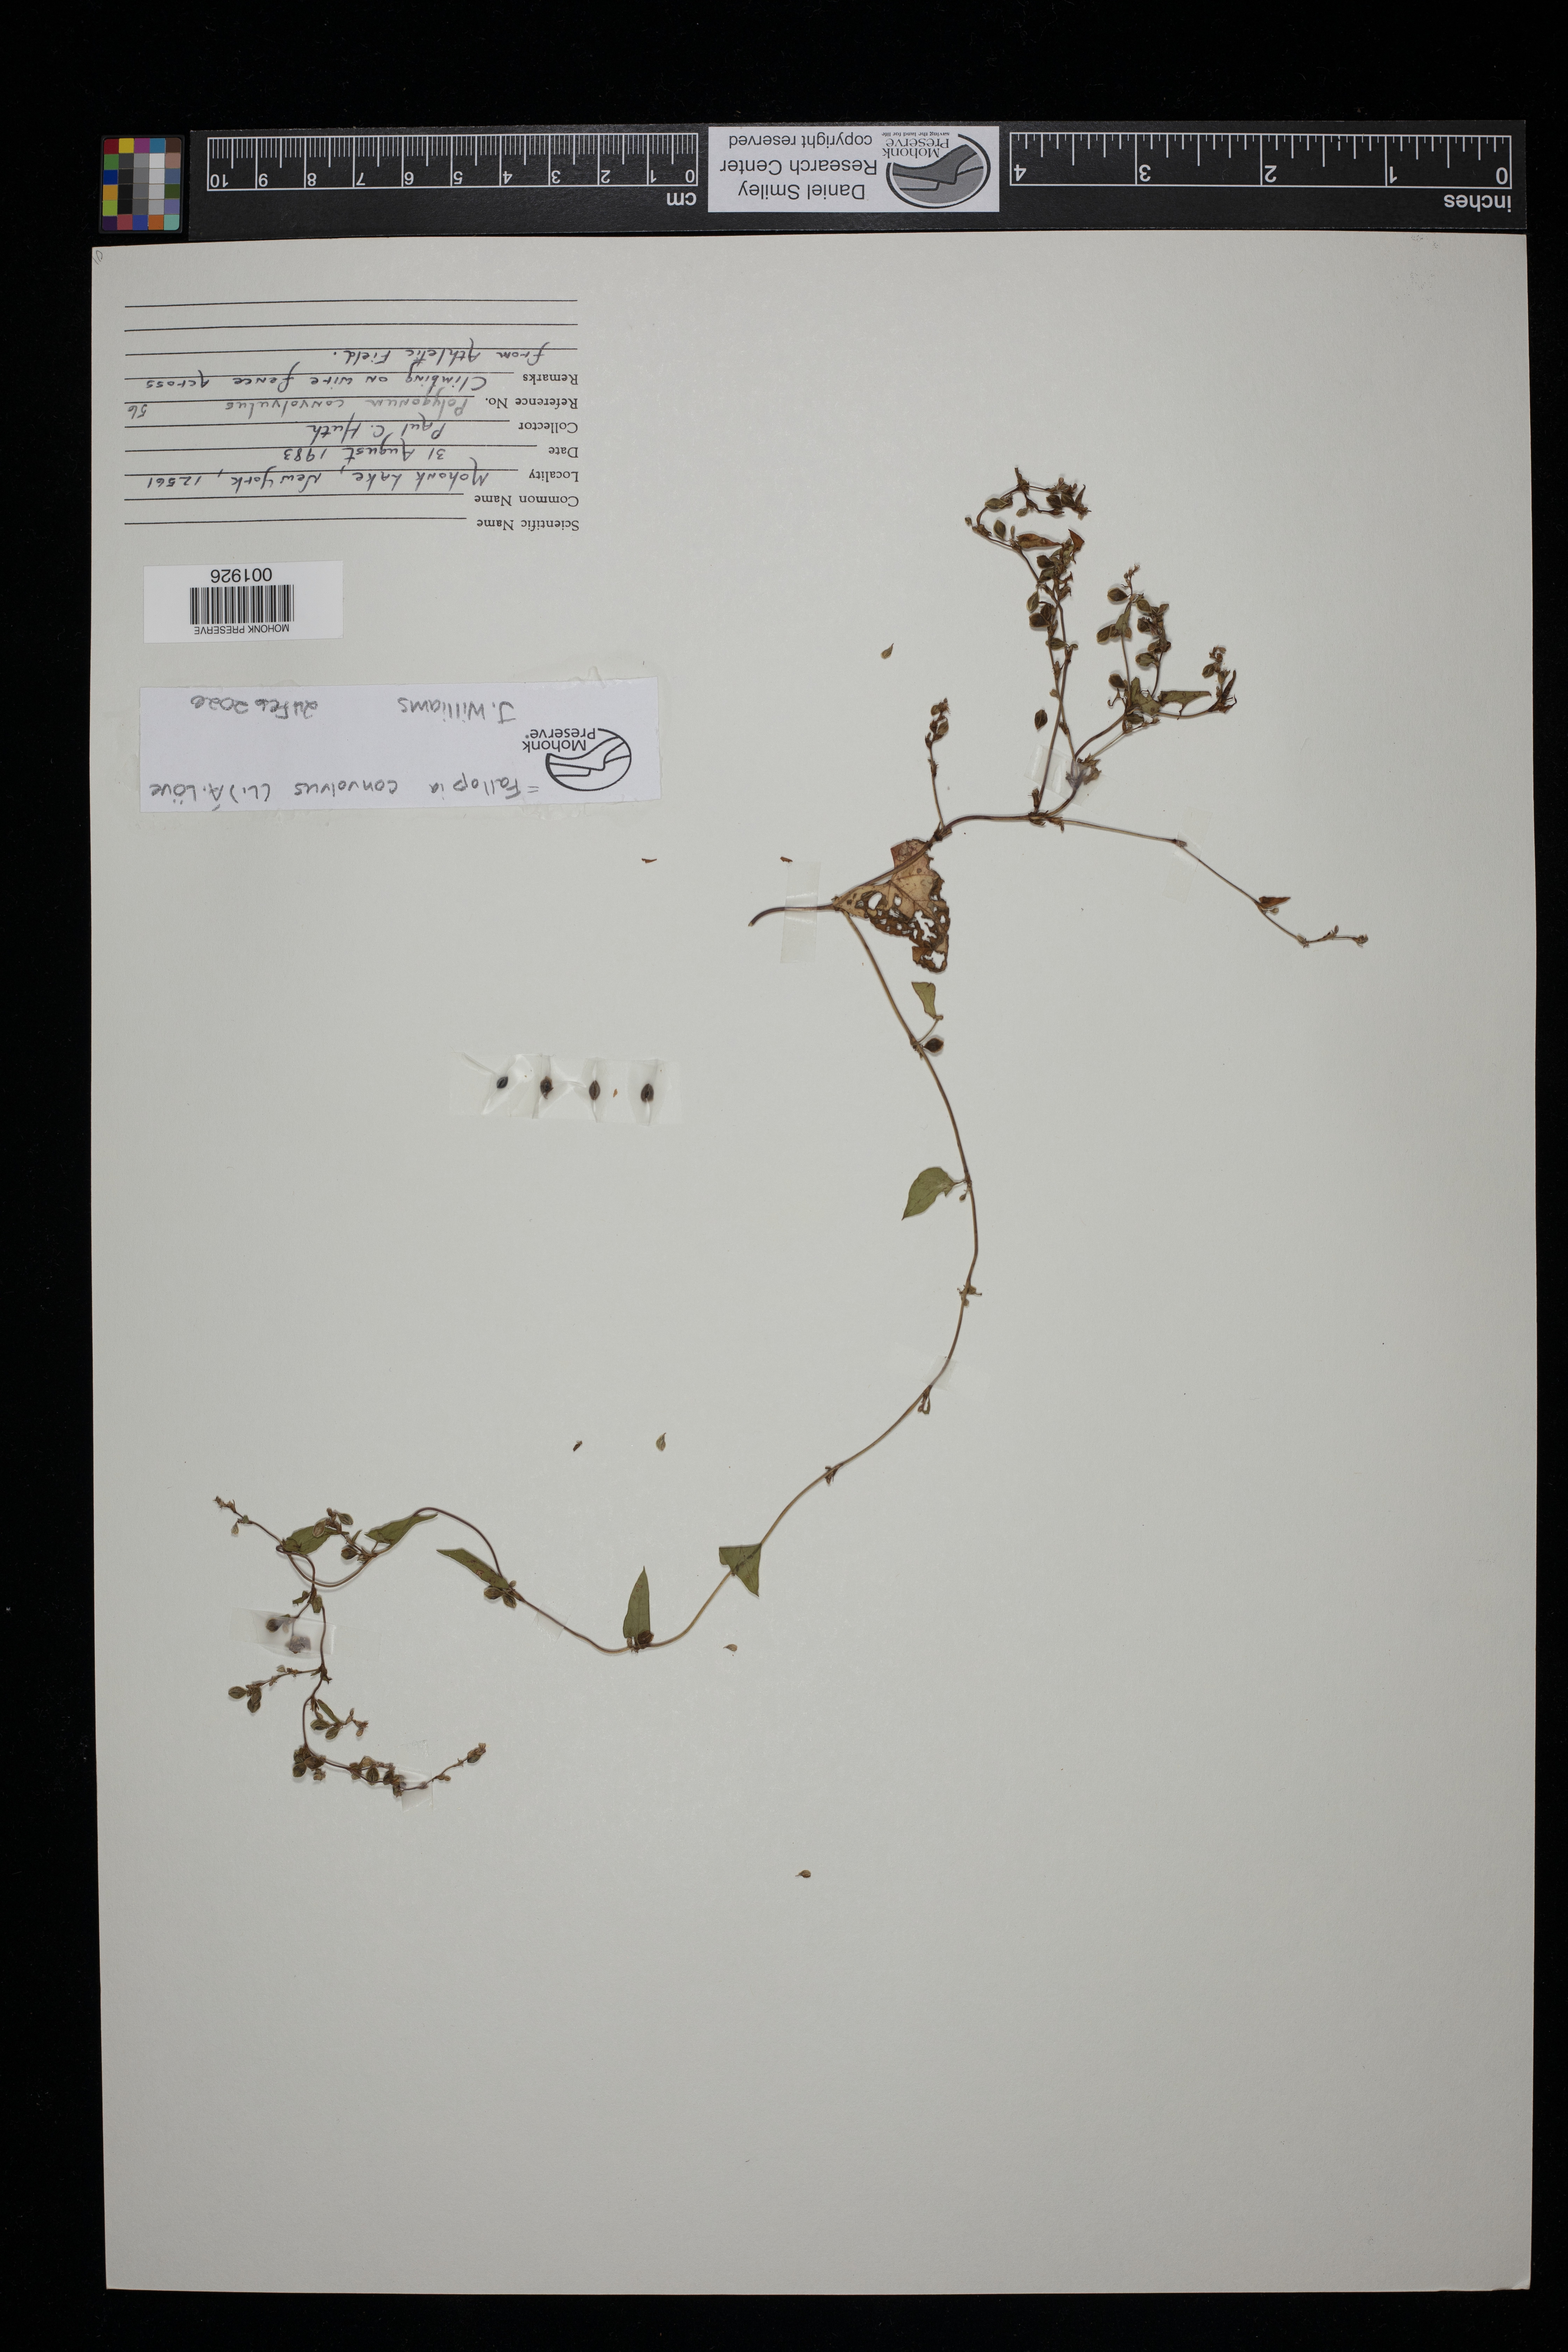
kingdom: Plantae
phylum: Tracheophyta
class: Magnoliopsida
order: Caryophyllales
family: Polygonaceae
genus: Fallopia
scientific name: Fallopia convolvulus
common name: Black bindweed
